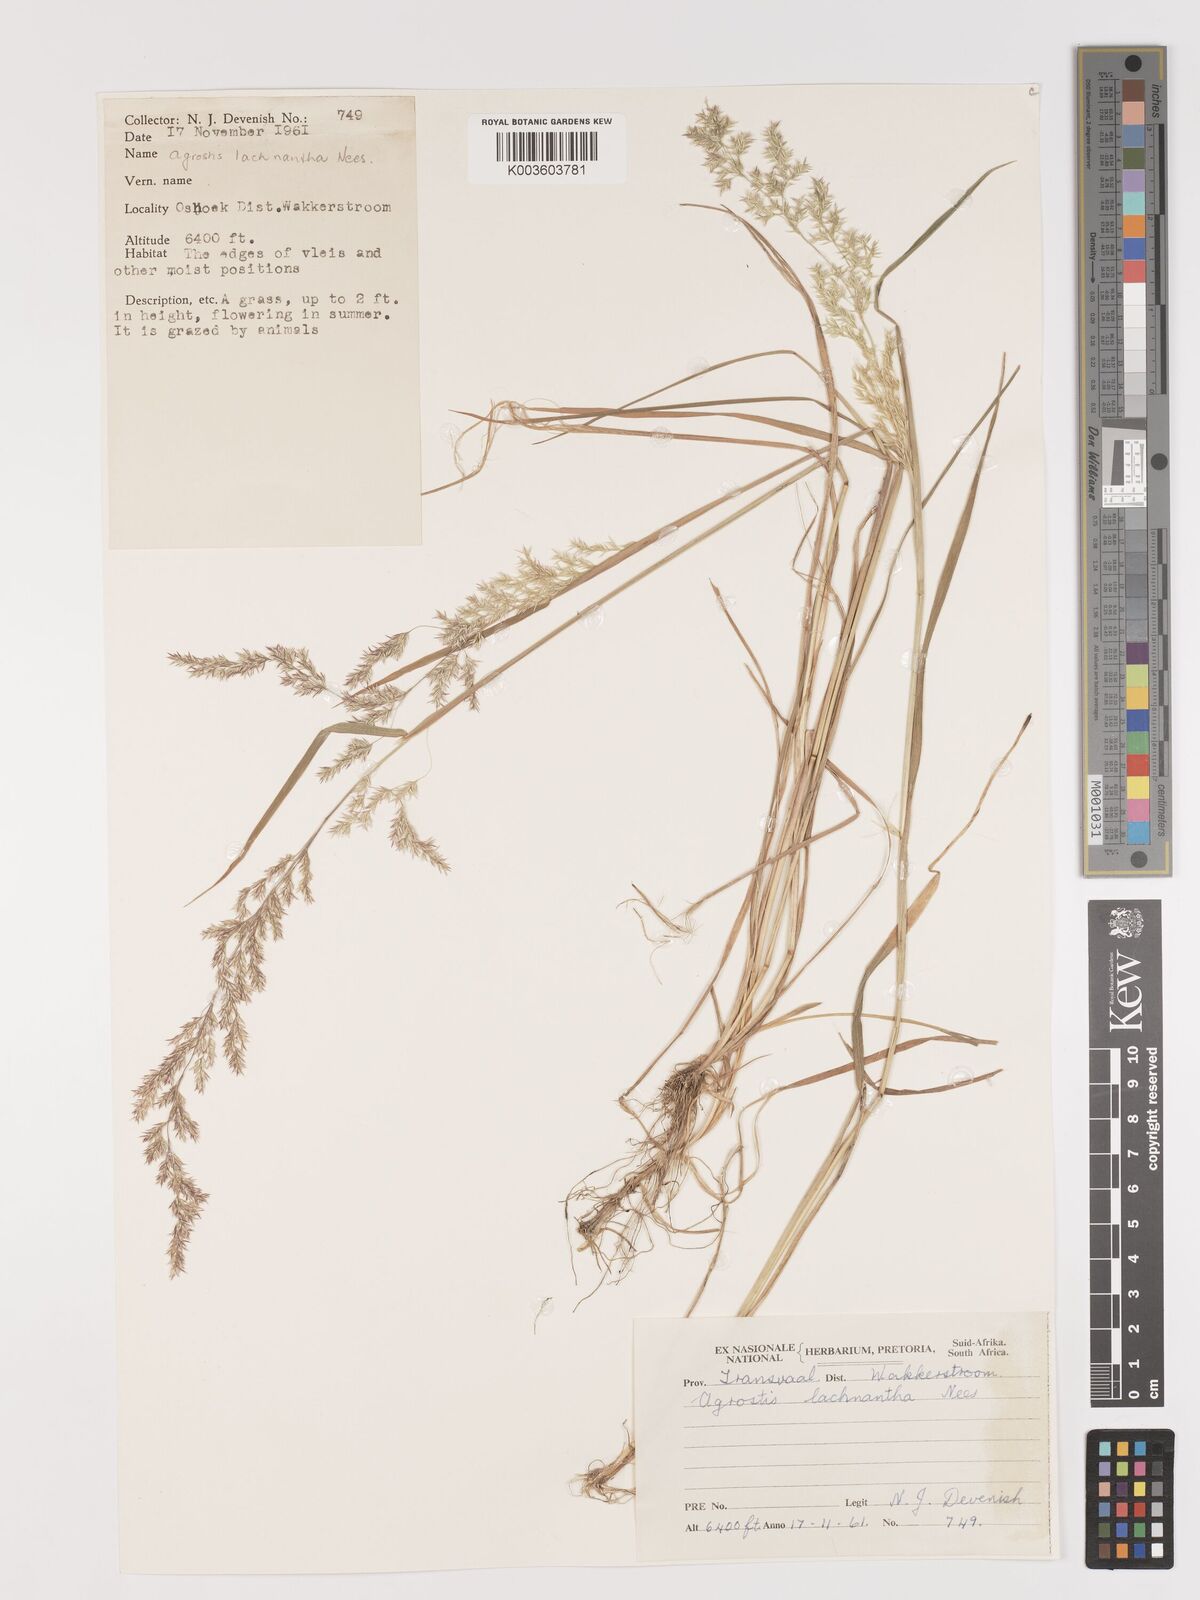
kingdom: Plantae
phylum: Tracheophyta
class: Liliopsida
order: Poales
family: Poaceae
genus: Lachnagrostis
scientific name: Lachnagrostis lachnantha
